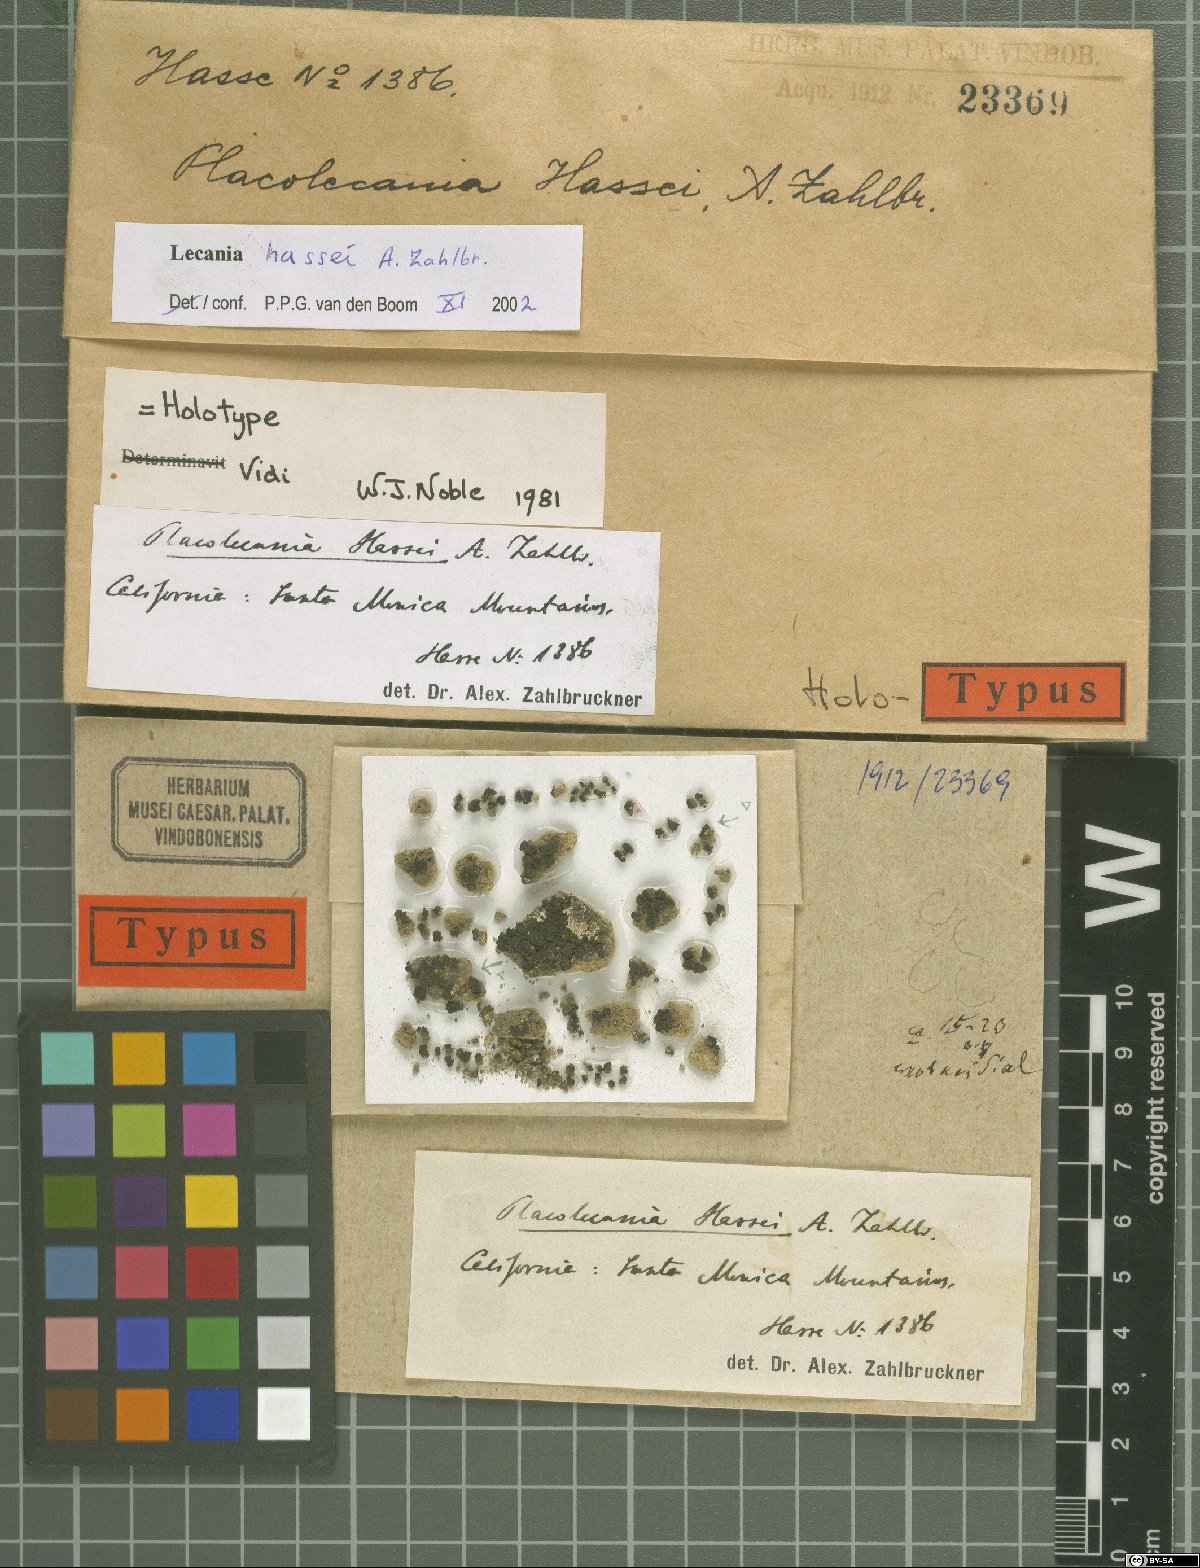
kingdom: Fungi
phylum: Ascomycota
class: Lecanoromycetes
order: Lecanorales
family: Ramalinaceae
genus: Lecania
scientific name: Lecania hassei
